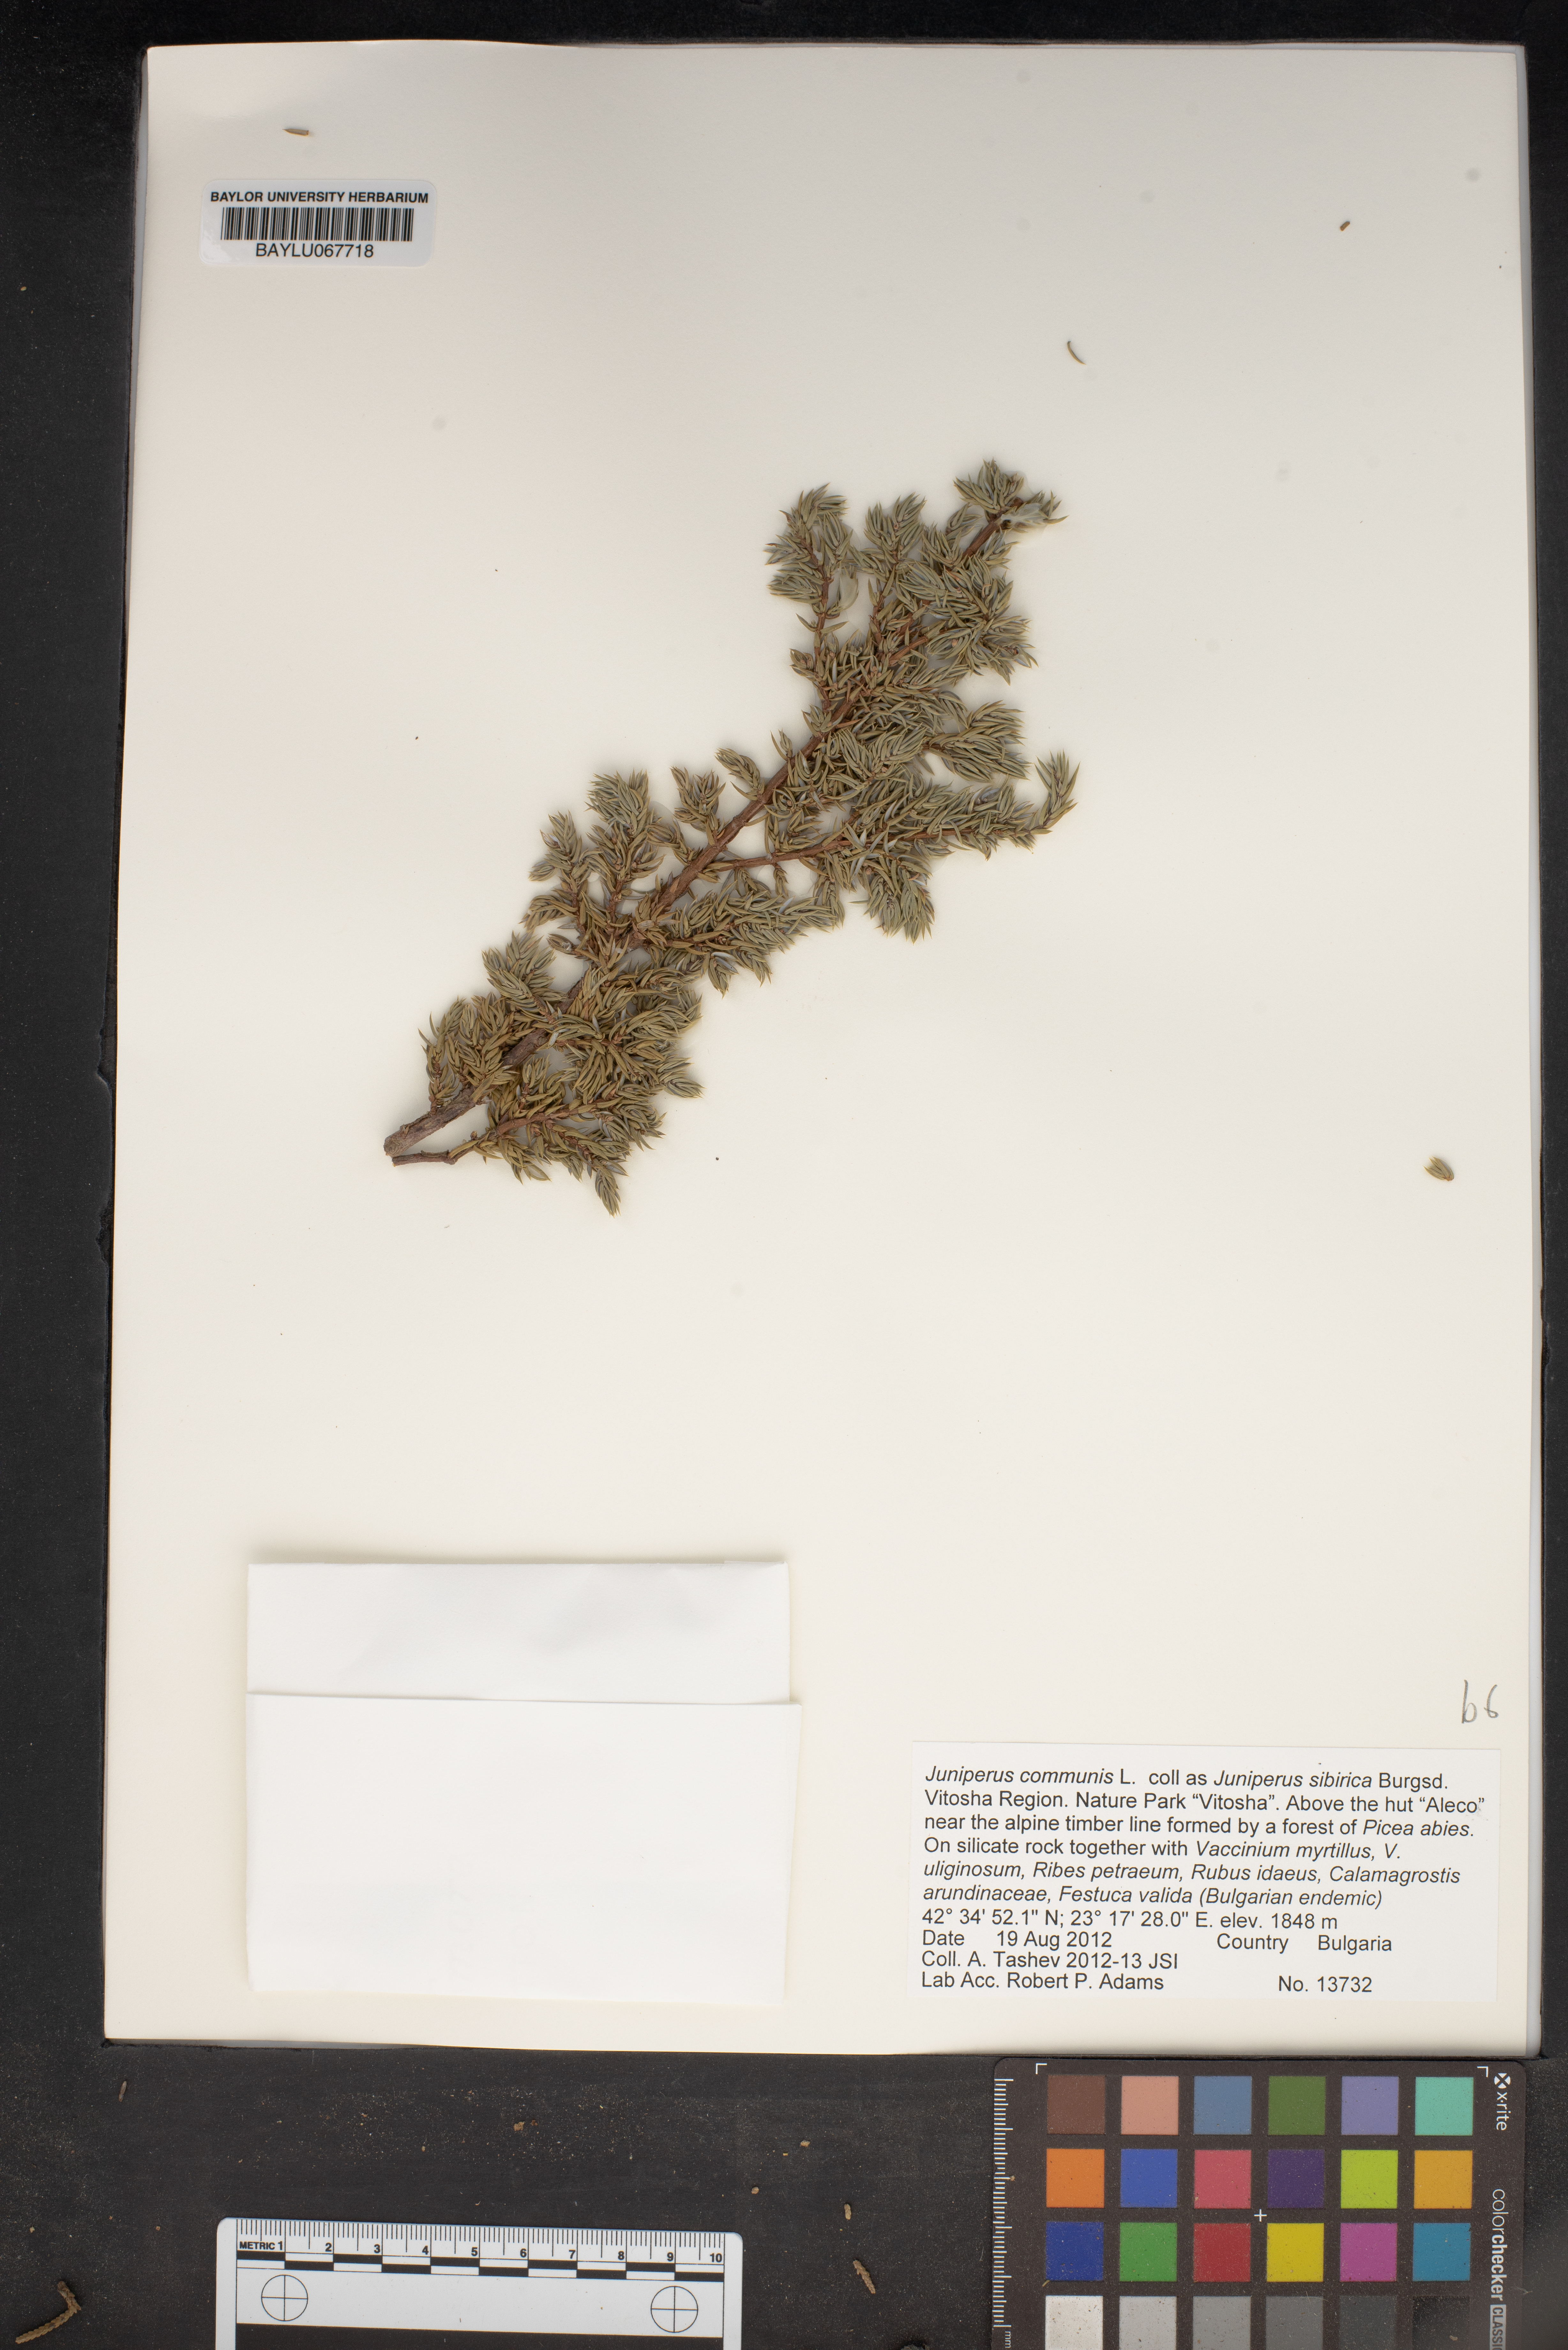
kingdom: Plantae
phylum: Tracheophyta
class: Pinopsida
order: Pinales
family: Cupressaceae
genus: Juniperus
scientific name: Juniperus communis
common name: Common juniper
